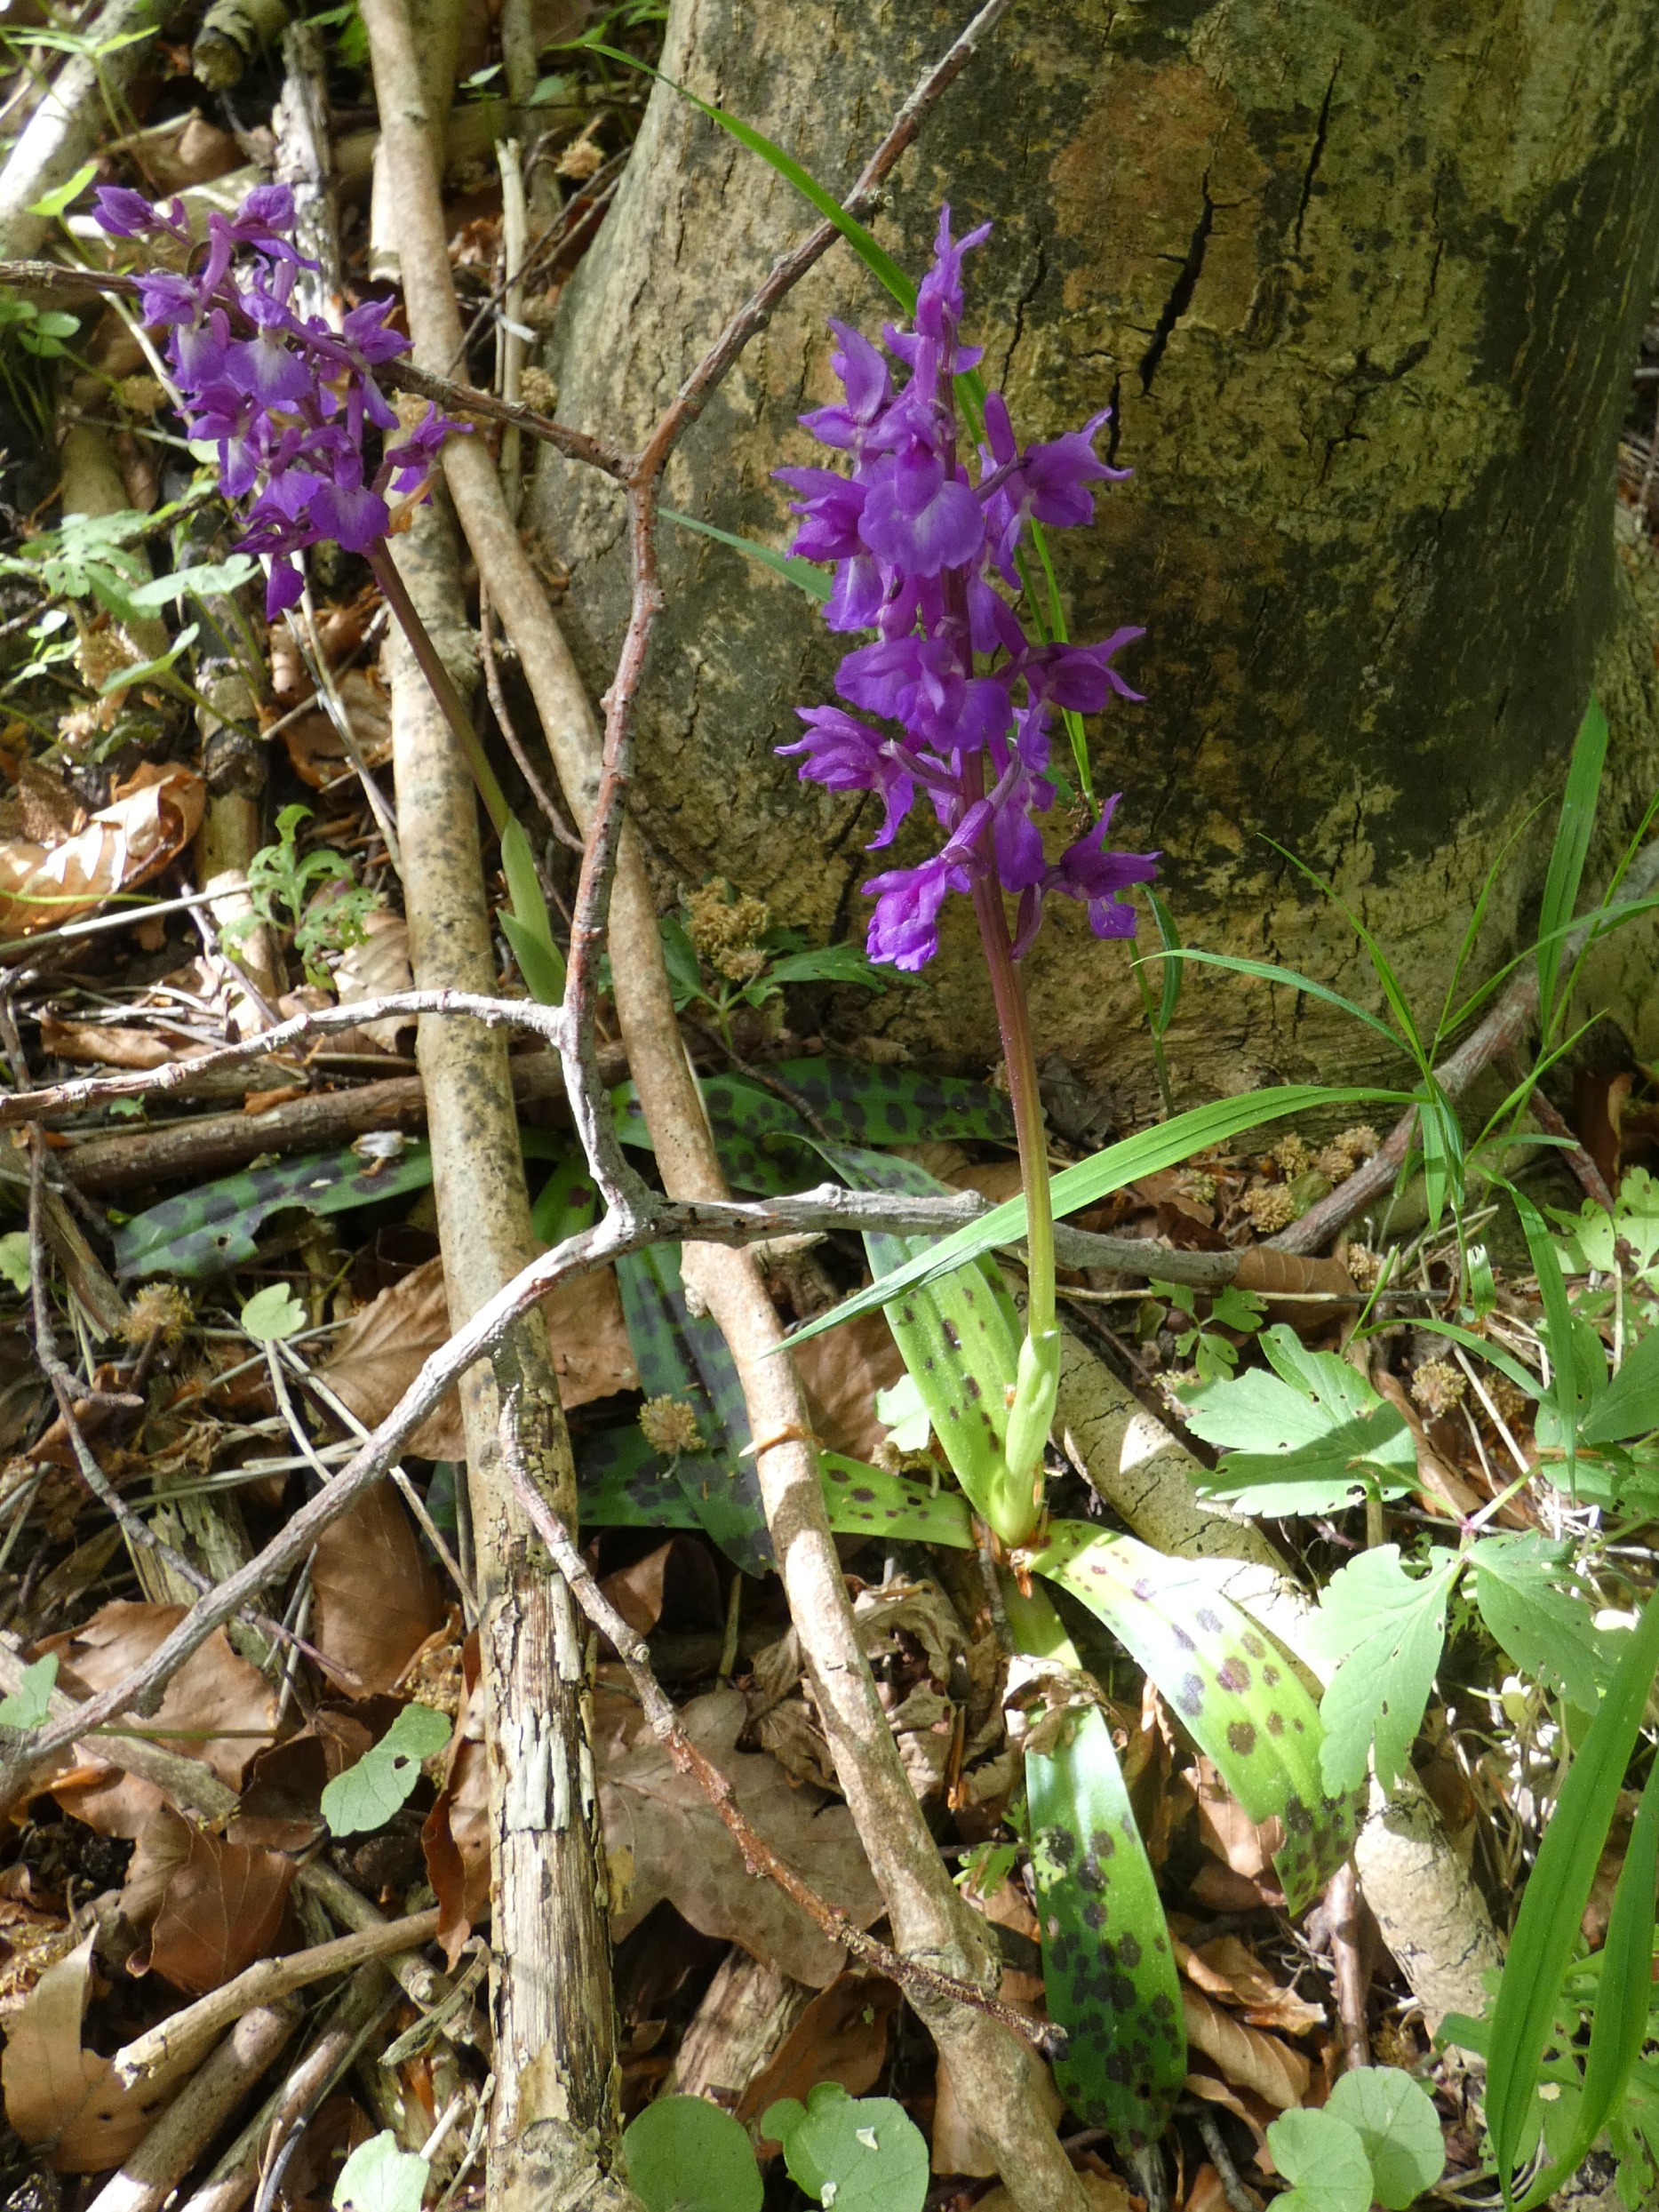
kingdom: Plantae
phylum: Tracheophyta
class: Liliopsida
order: Asparagales
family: Orchidaceae
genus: Orchis
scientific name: Orchis mascula
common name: Tyndakset gøgeurt
